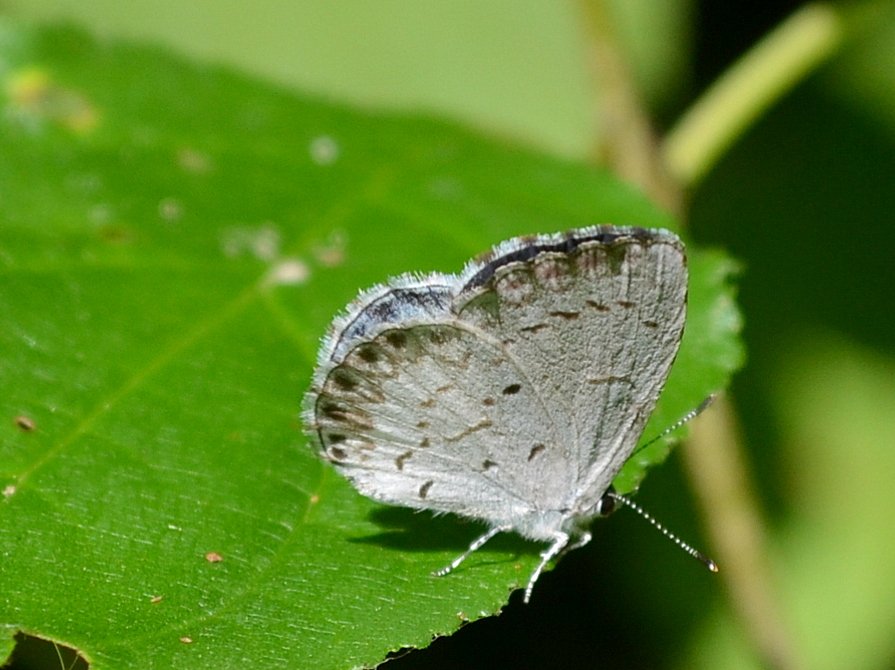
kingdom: Animalia
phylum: Arthropoda
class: Insecta
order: Lepidoptera
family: Lycaenidae
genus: Celastrina
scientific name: Celastrina lucia
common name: Northern Spring Azure
